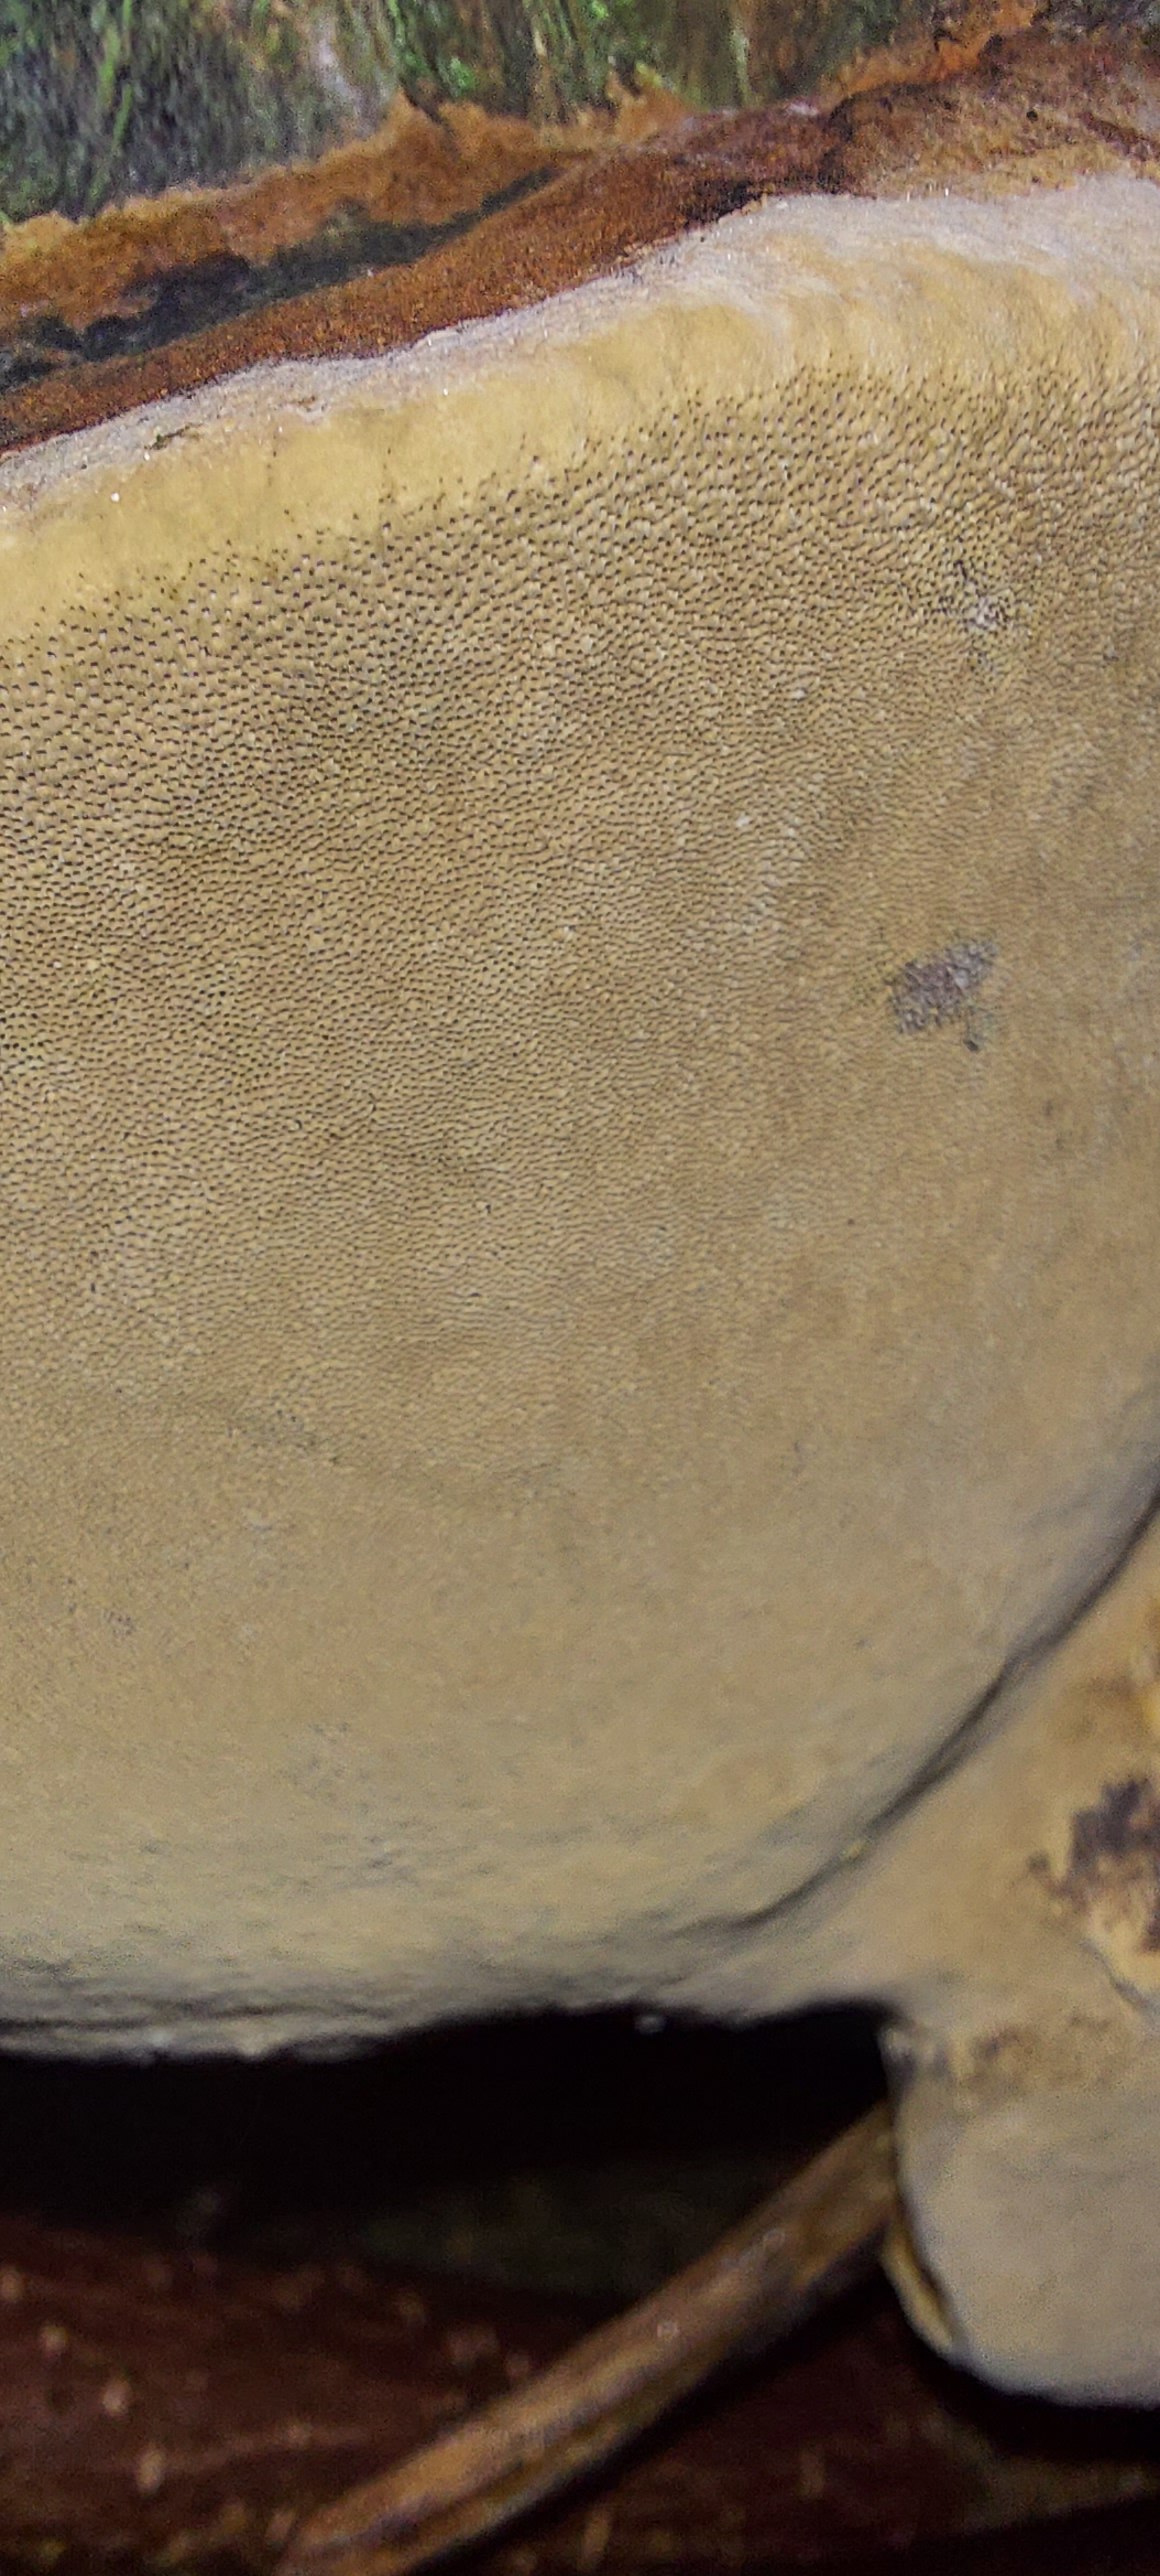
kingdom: Fungi
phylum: Basidiomycota
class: Agaricomycetes
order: Hymenochaetales
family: Hymenochaetaceae
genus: Phellinus
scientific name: Phellinus pomaceus
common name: blomme-ildporesvamp
